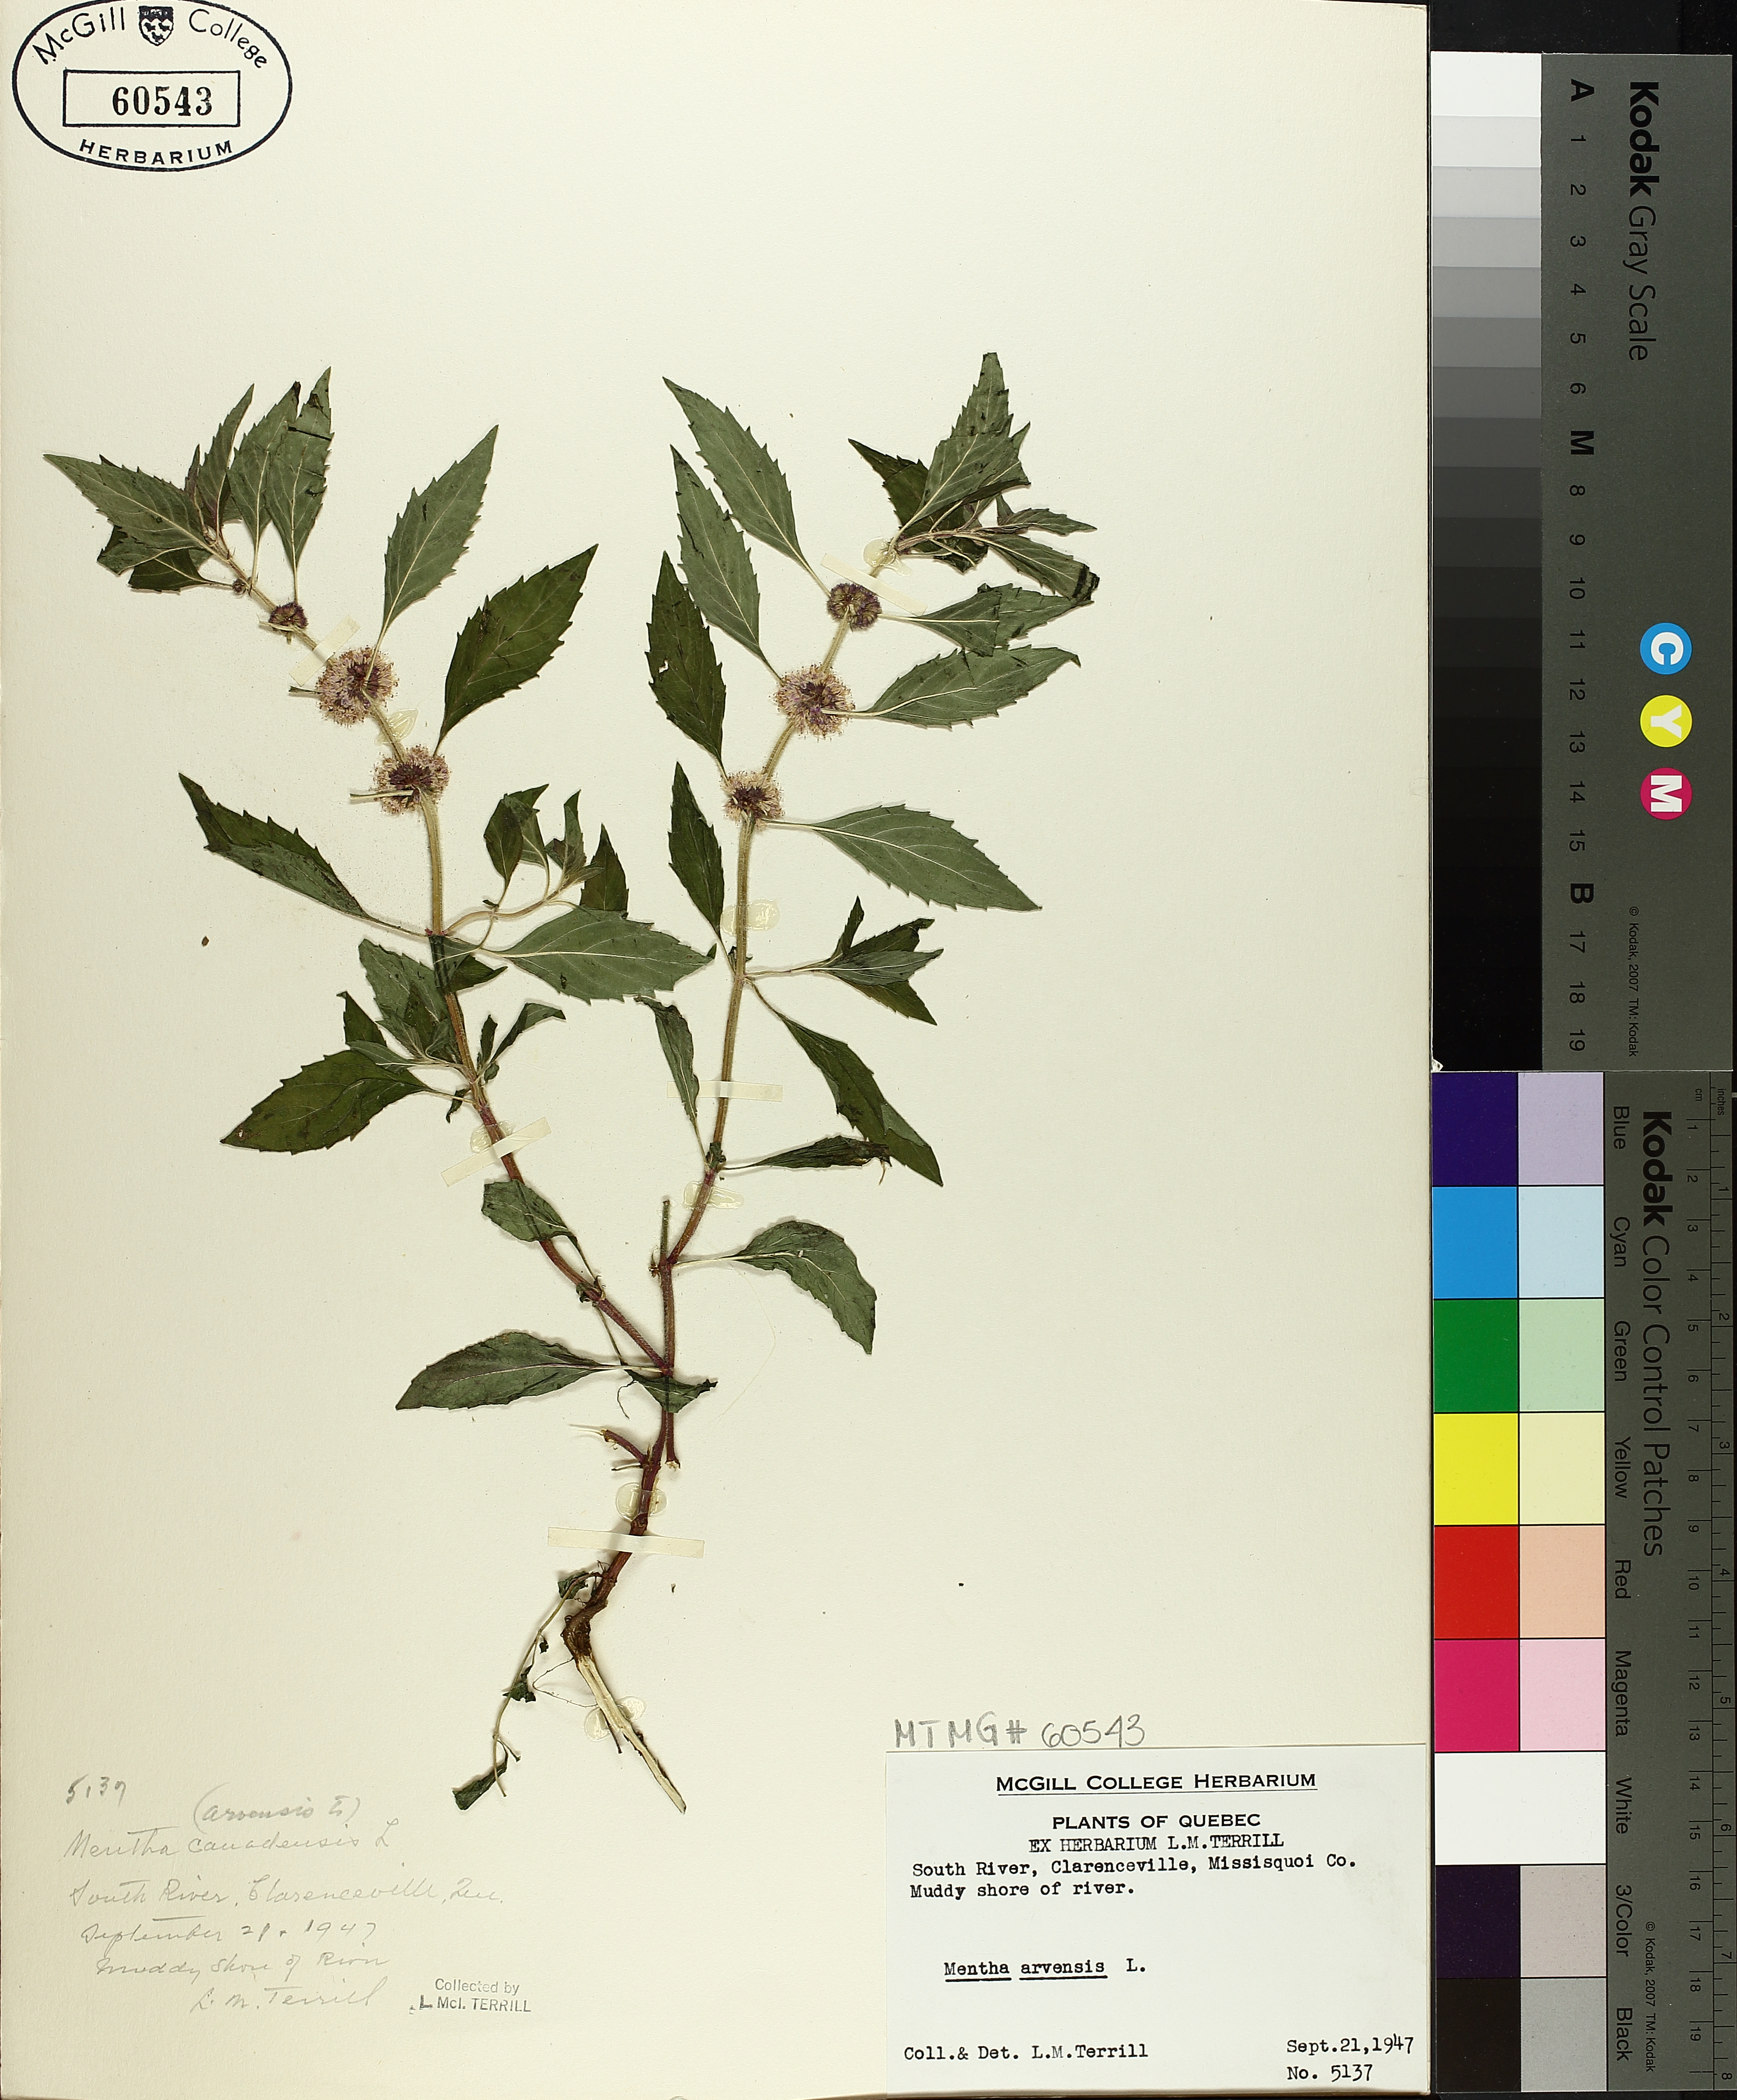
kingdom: Plantae
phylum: Tracheophyta
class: Magnoliopsida
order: Lamiales
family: Lamiaceae
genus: Mentha
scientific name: Mentha arvensis
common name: Corn mint
